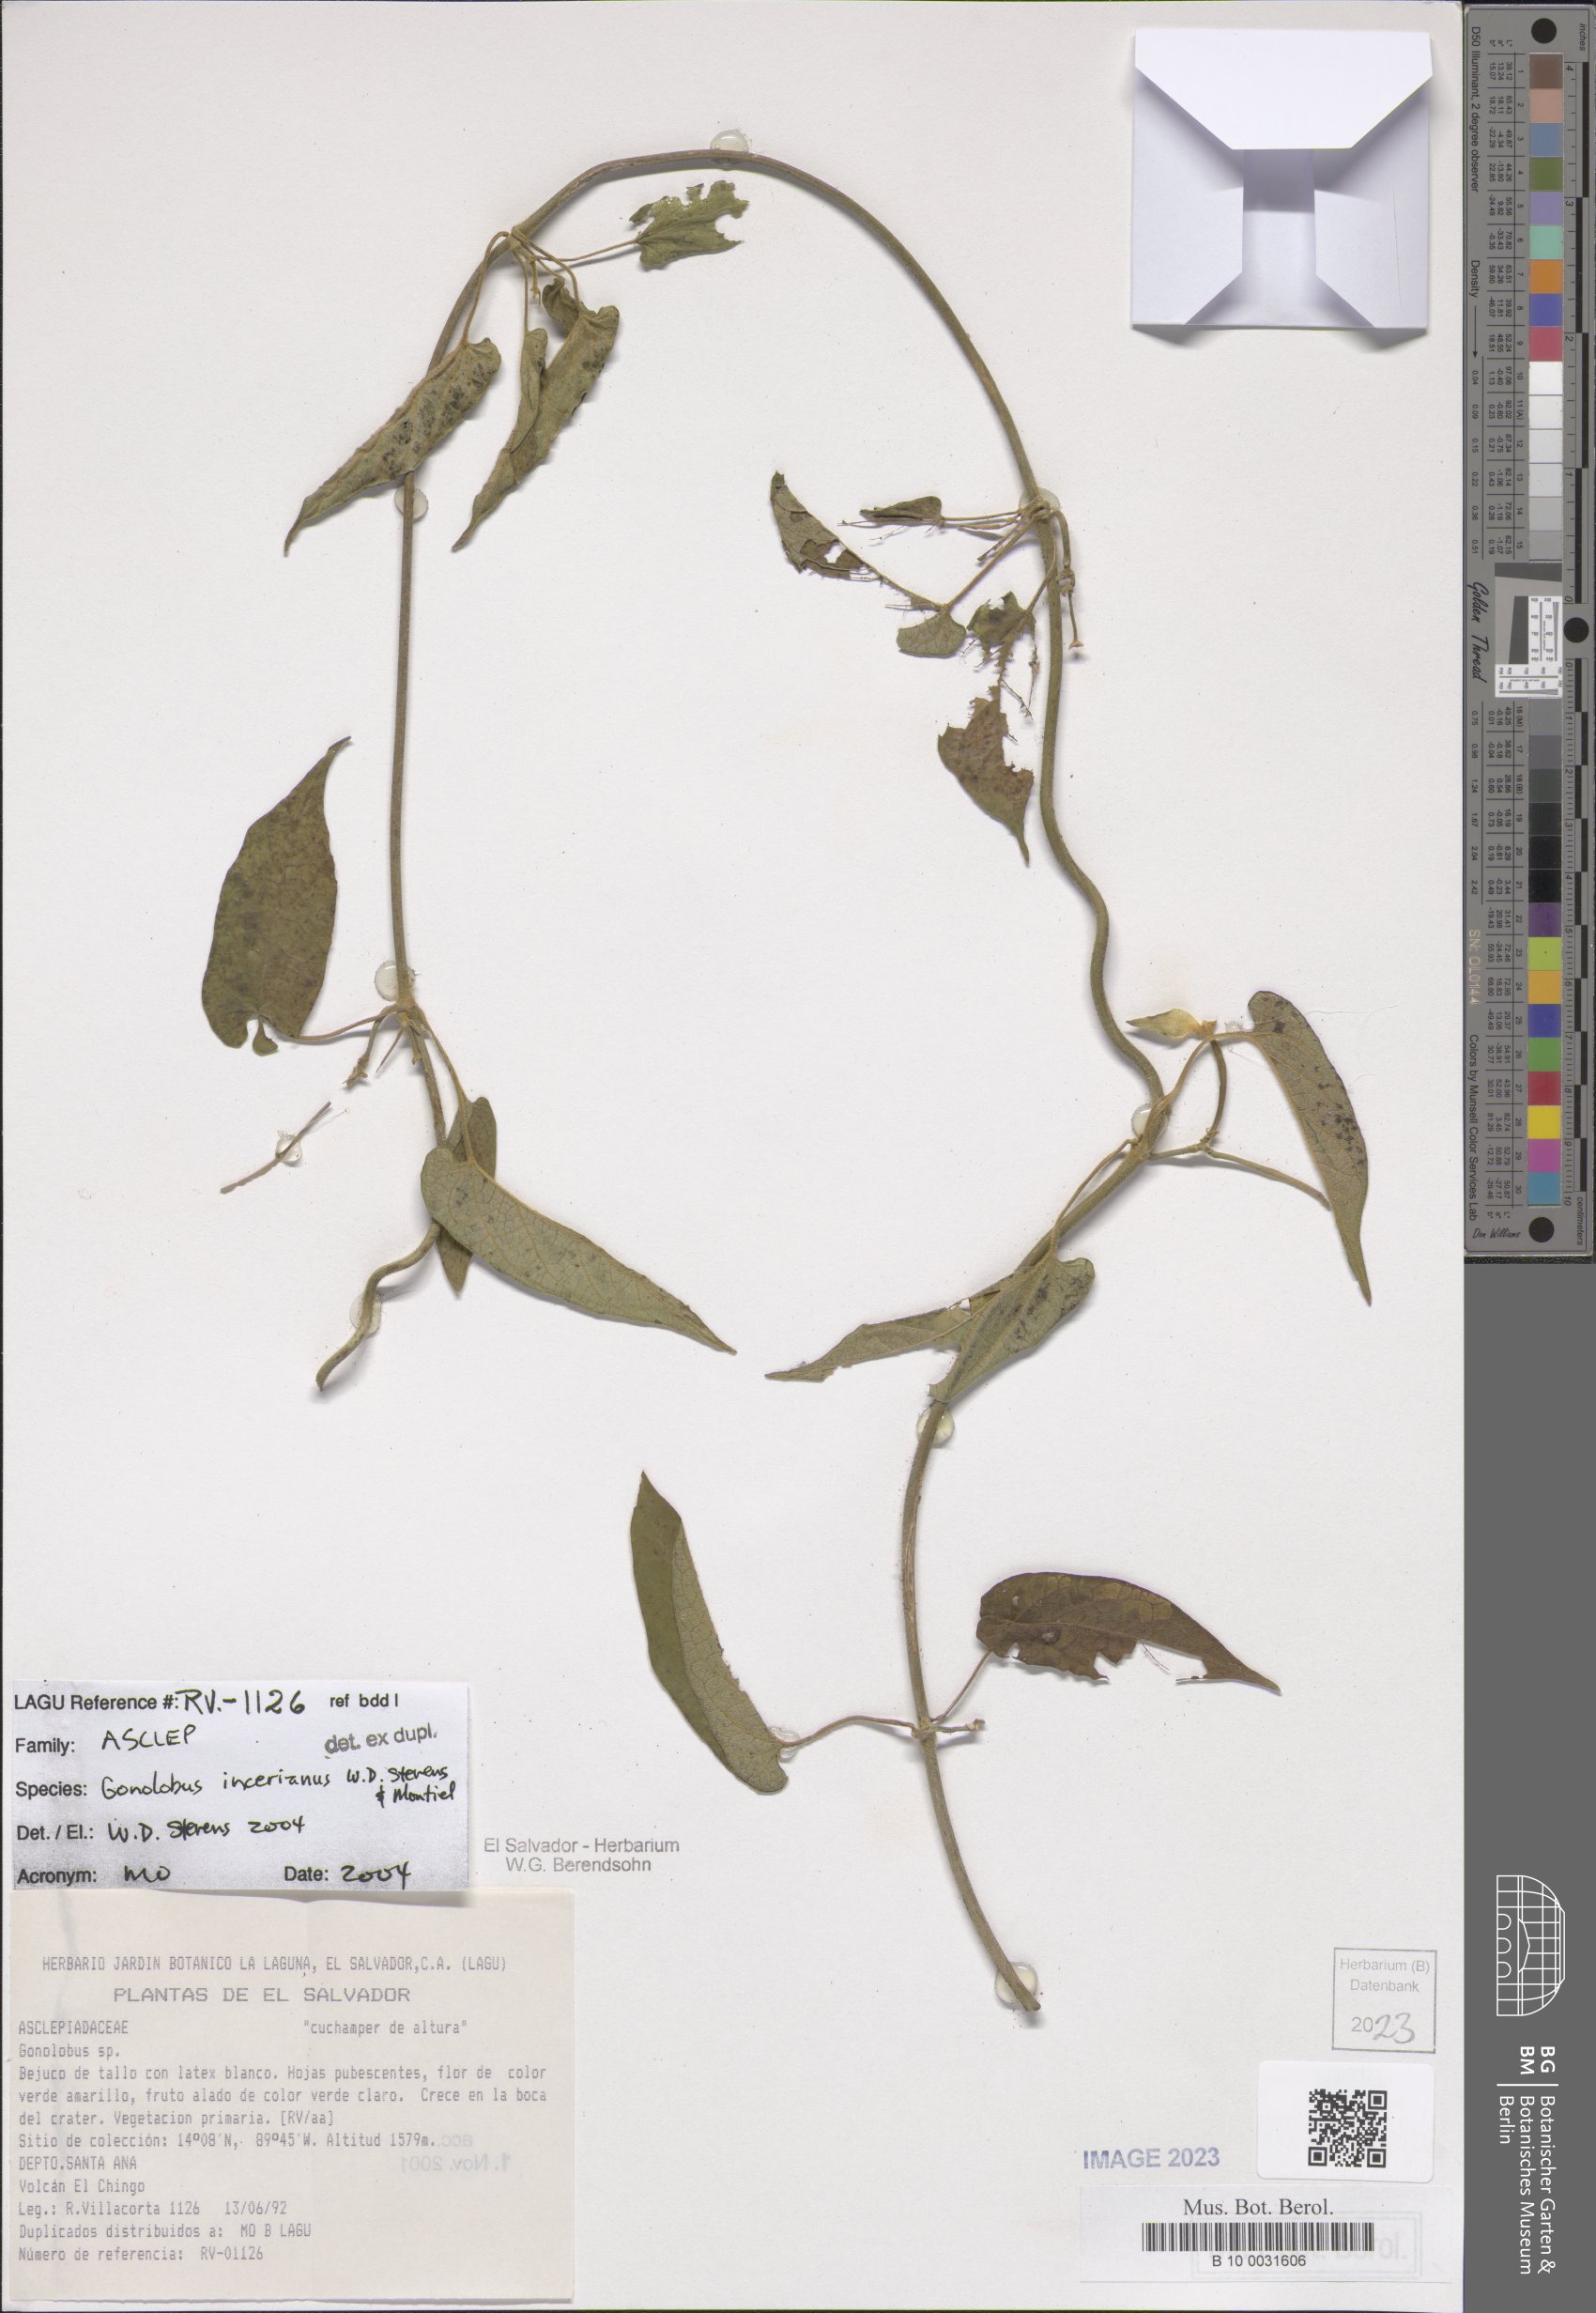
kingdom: Plantae
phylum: Tracheophyta
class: Magnoliopsida
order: Gentianales
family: Apocynaceae
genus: Gonolobus
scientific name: Gonolobus incerianus
